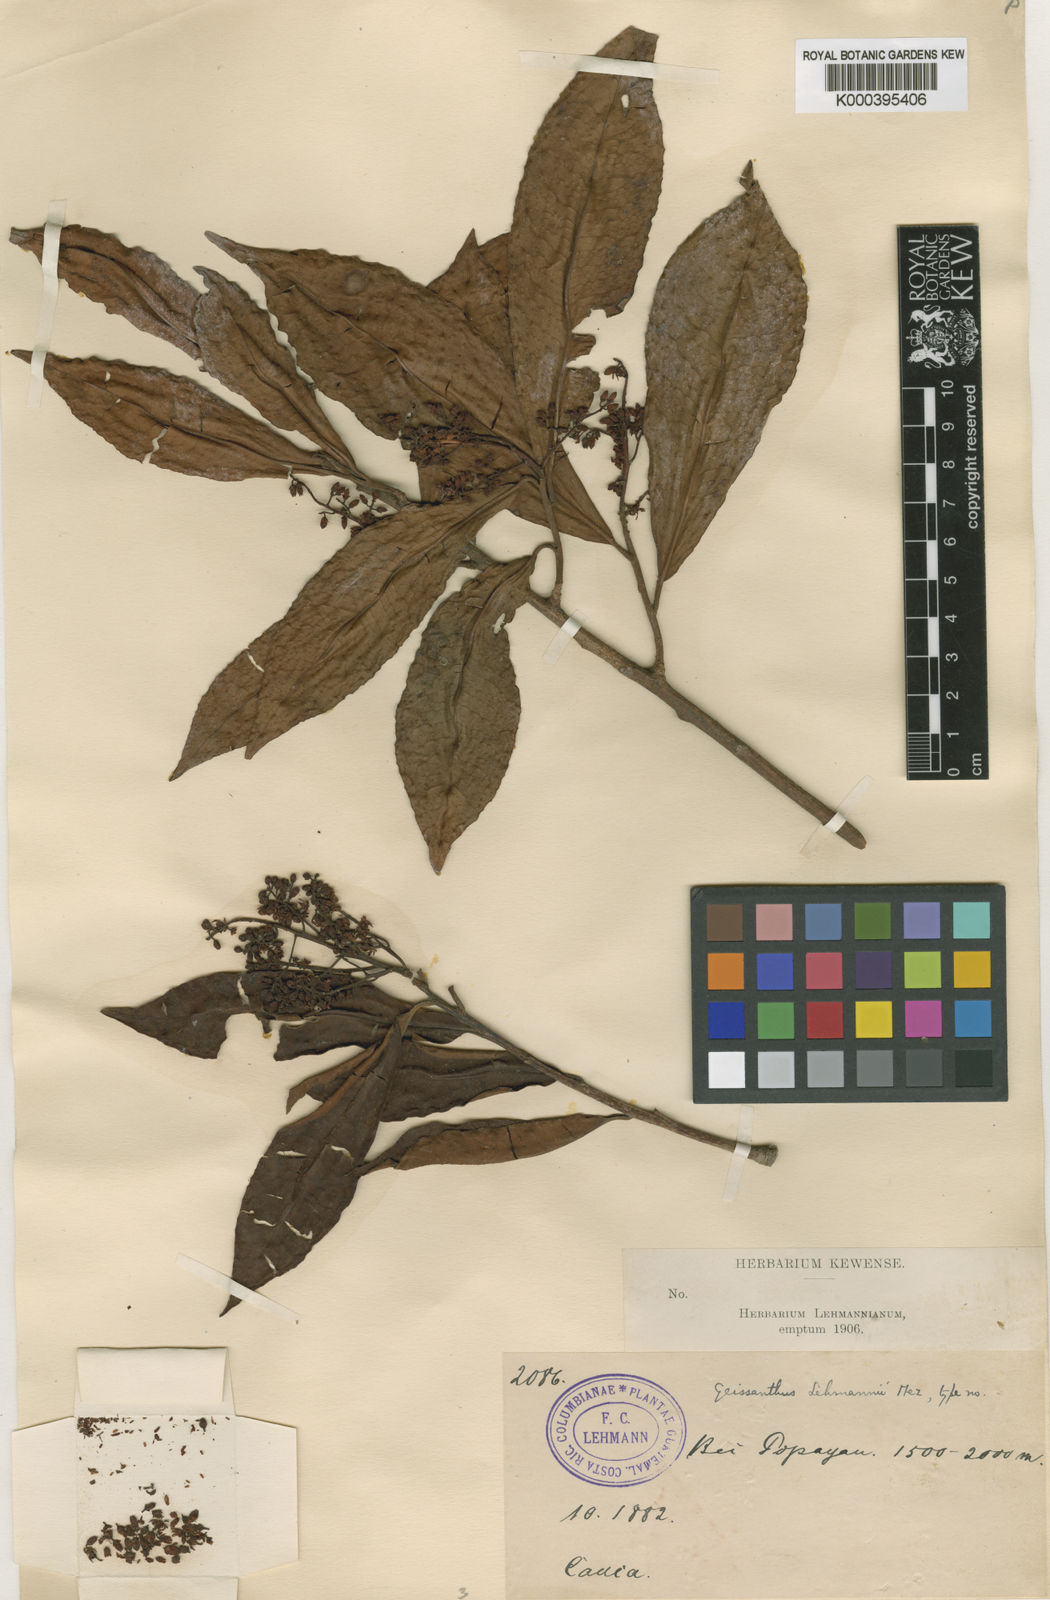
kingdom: Plantae
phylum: Tracheophyta
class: Magnoliopsida
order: Ericales
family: Primulaceae
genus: Geissanthus
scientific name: Geissanthus lehmannii
